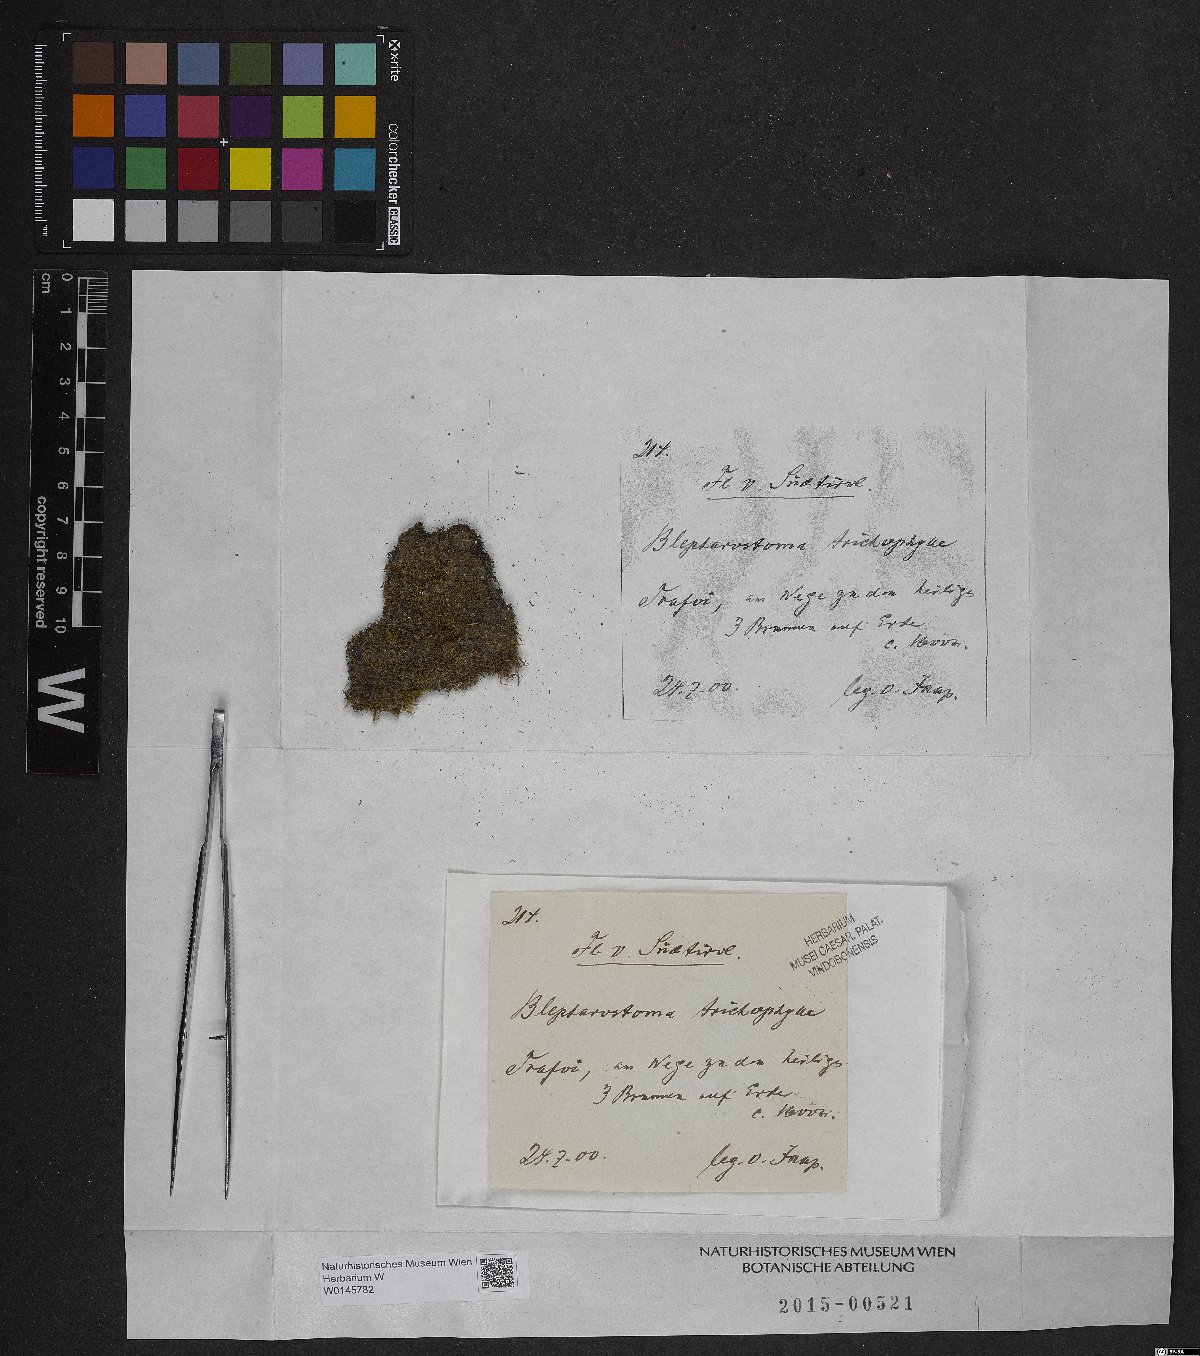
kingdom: Plantae
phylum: Marchantiophyta
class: Jungermanniopsida
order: Jungermanniales
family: Blepharostomataceae
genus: Blepharostoma
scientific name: Blepharostoma trichophyllum
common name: Hairy threadwort
